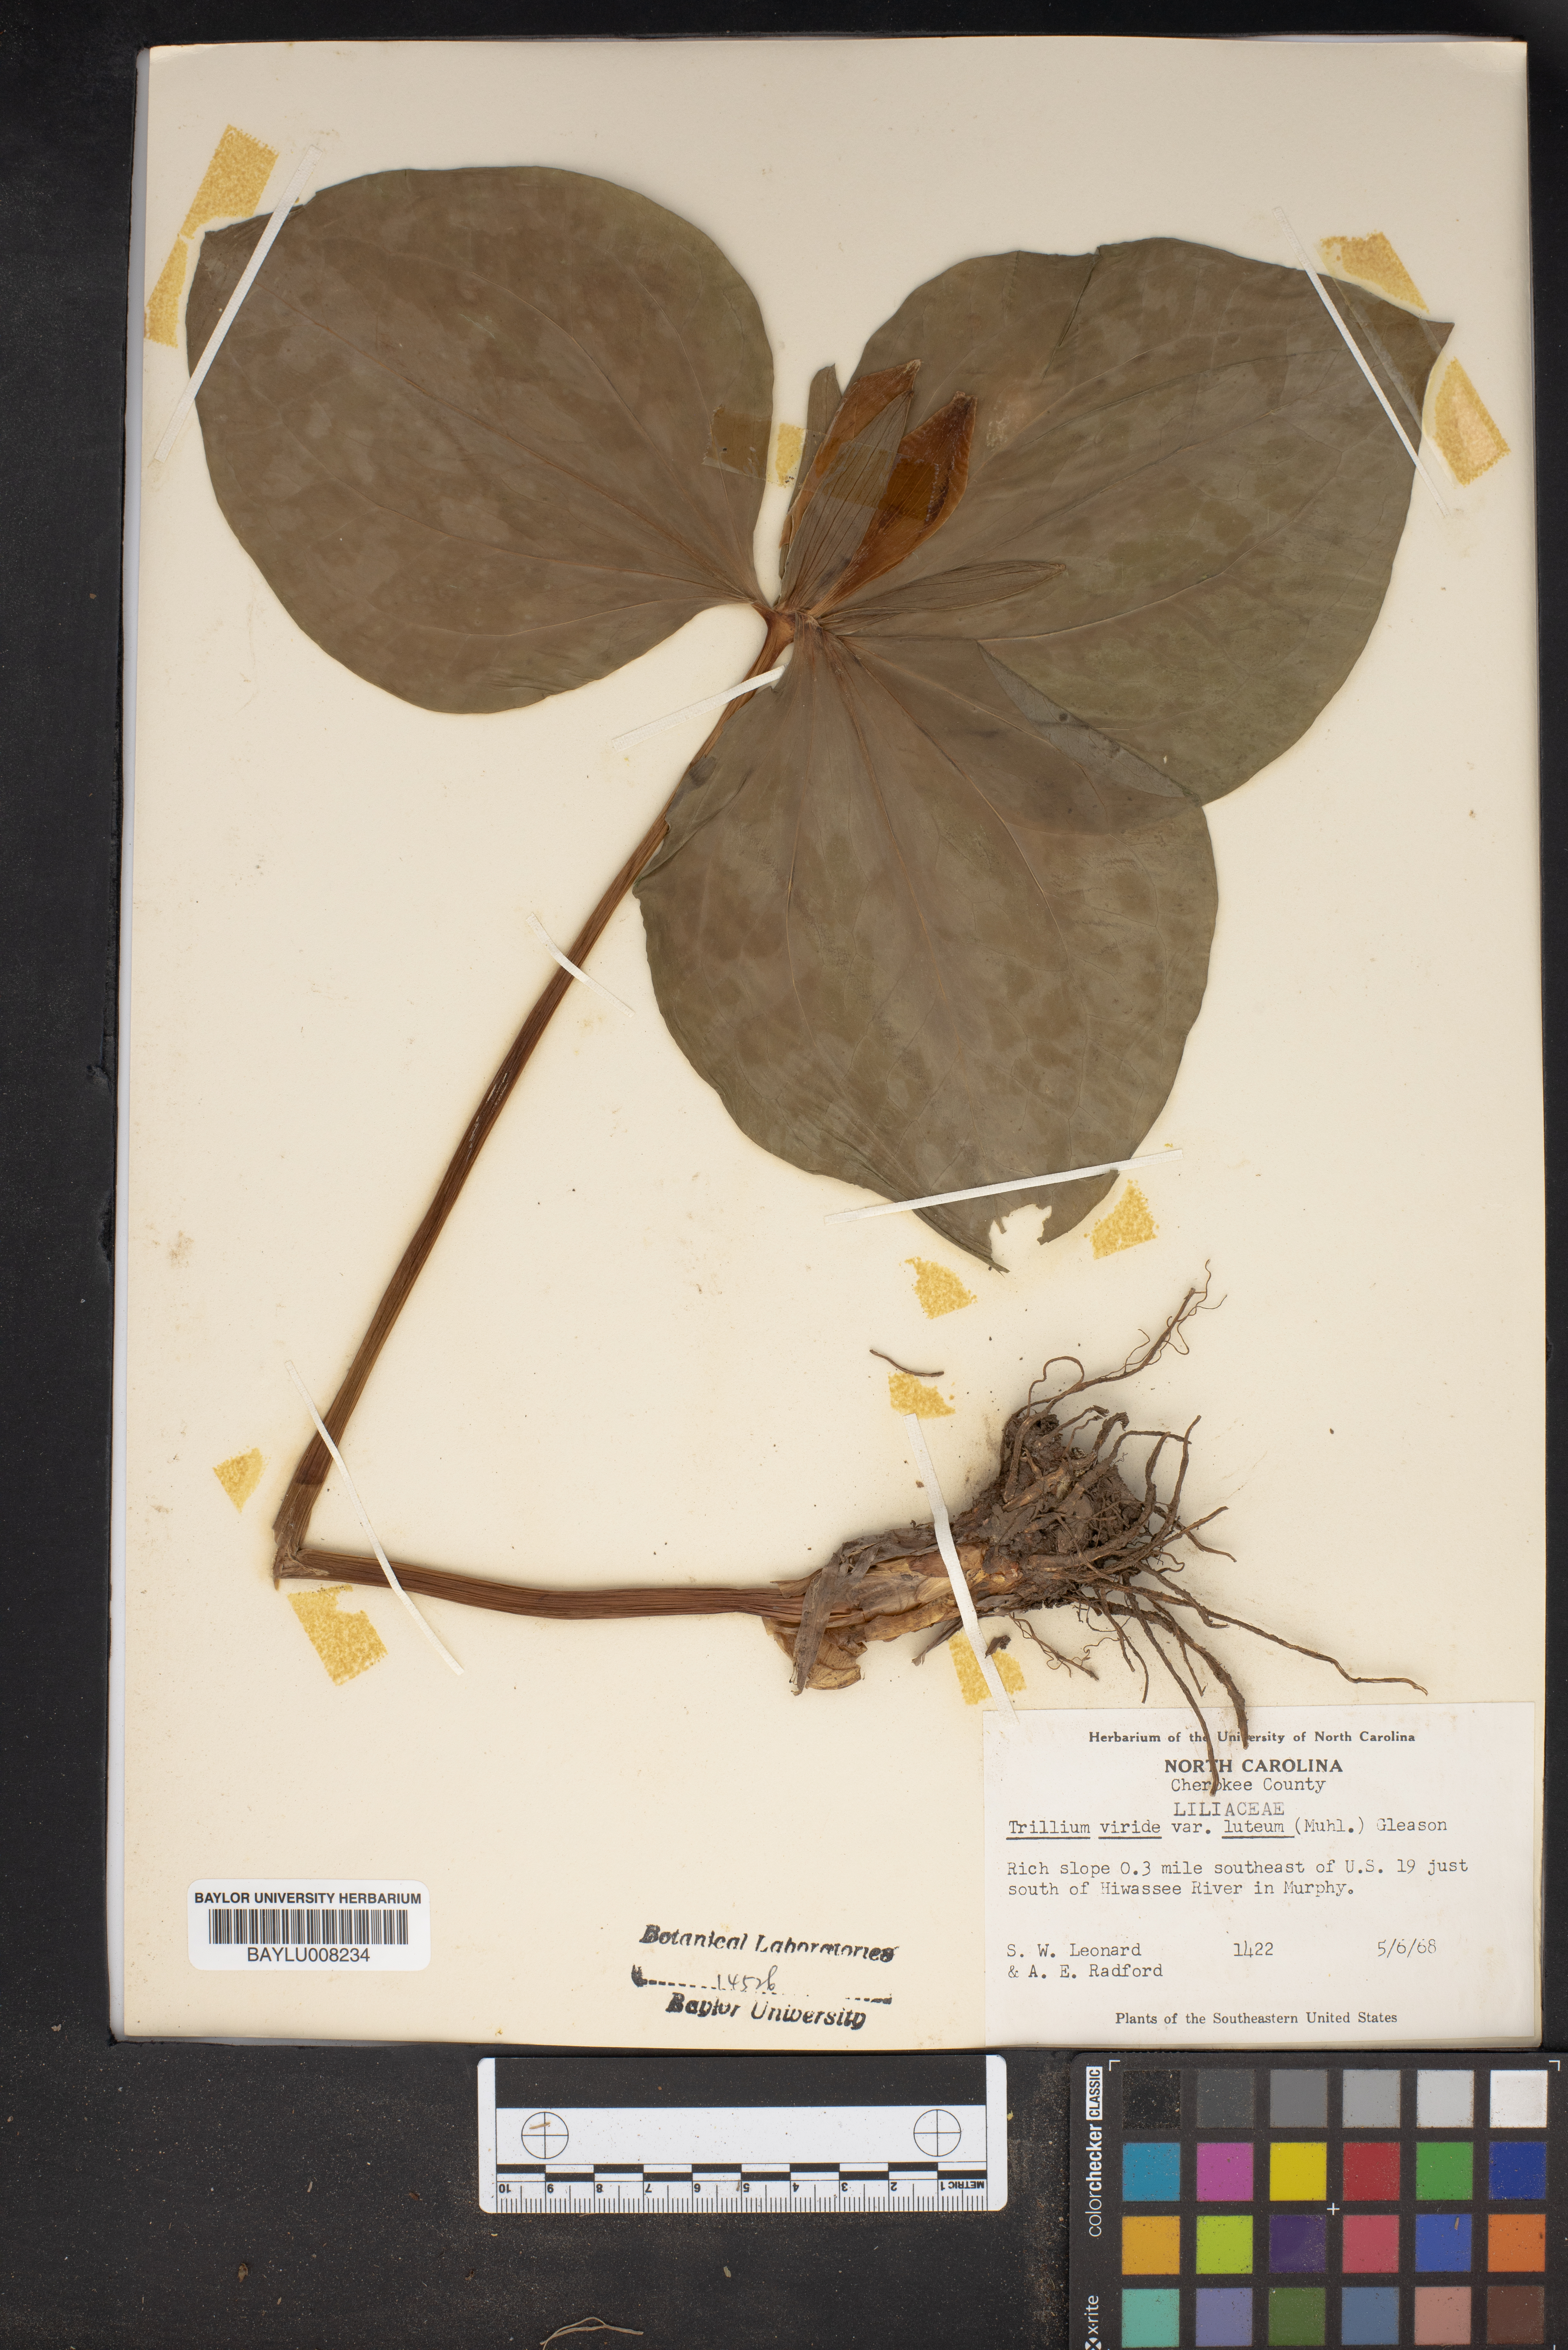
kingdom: Plantae
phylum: Tracheophyta
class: Liliopsida
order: Liliales
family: Melanthiaceae
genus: Trillium
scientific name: Trillium luteum
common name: Wax trillium
